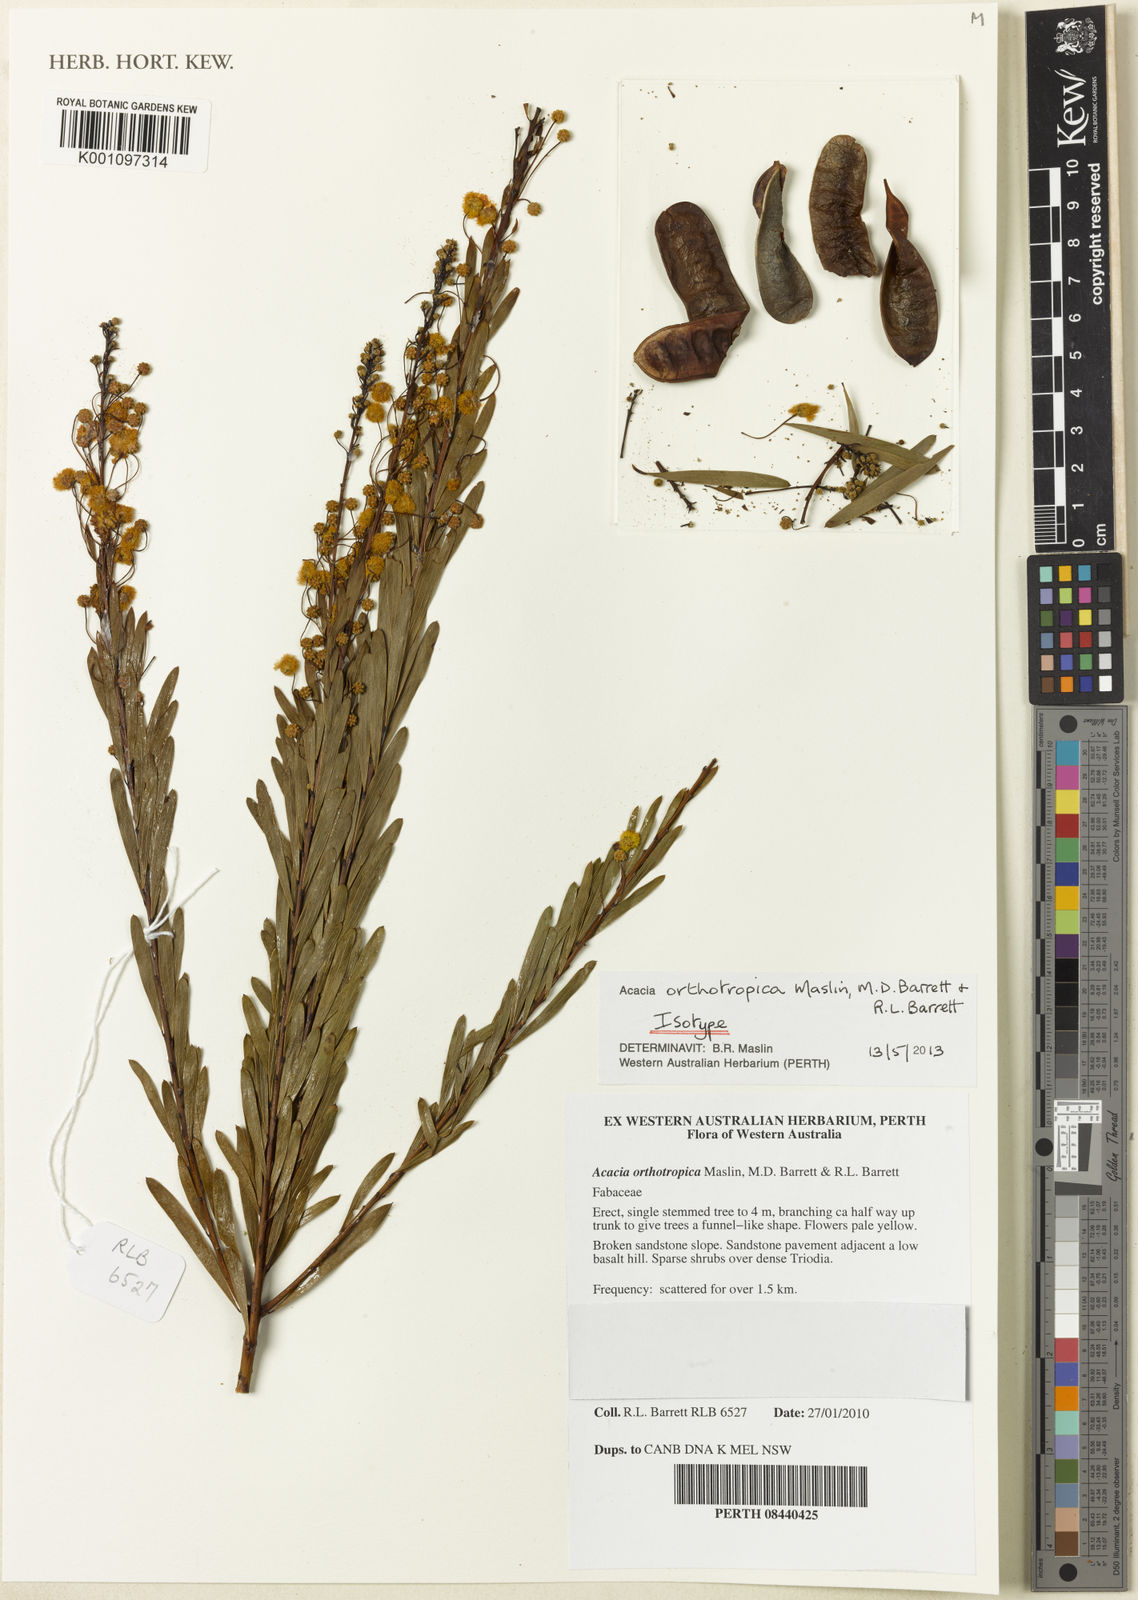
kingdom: Plantae
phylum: Tracheophyta
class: Magnoliopsida
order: Fabales
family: Fabaceae
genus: Acacia
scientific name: Acacia orthotropica
